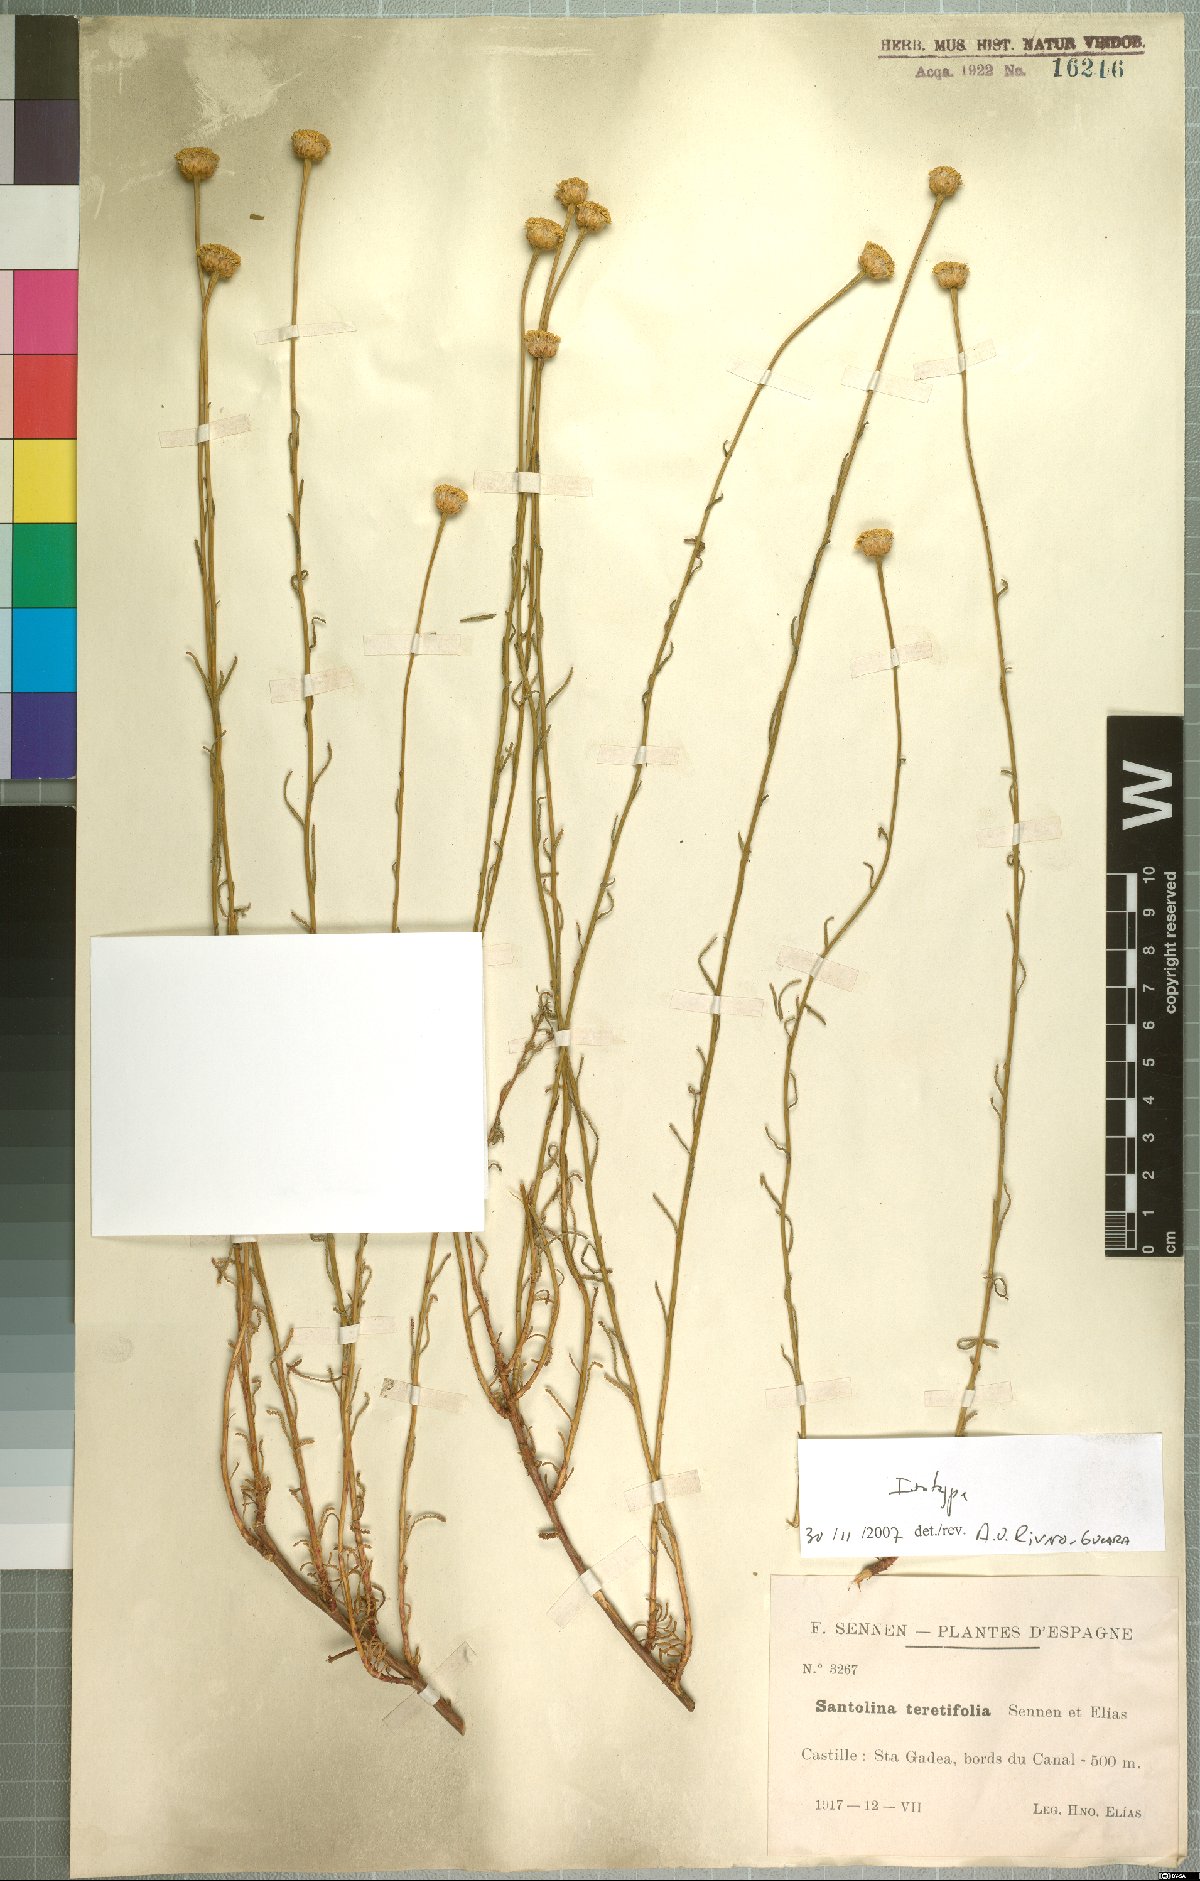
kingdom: Plantae
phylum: Tracheophyta
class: Magnoliopsida
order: Asterales
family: Asteraceae
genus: Santolina
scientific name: Santolina virens
